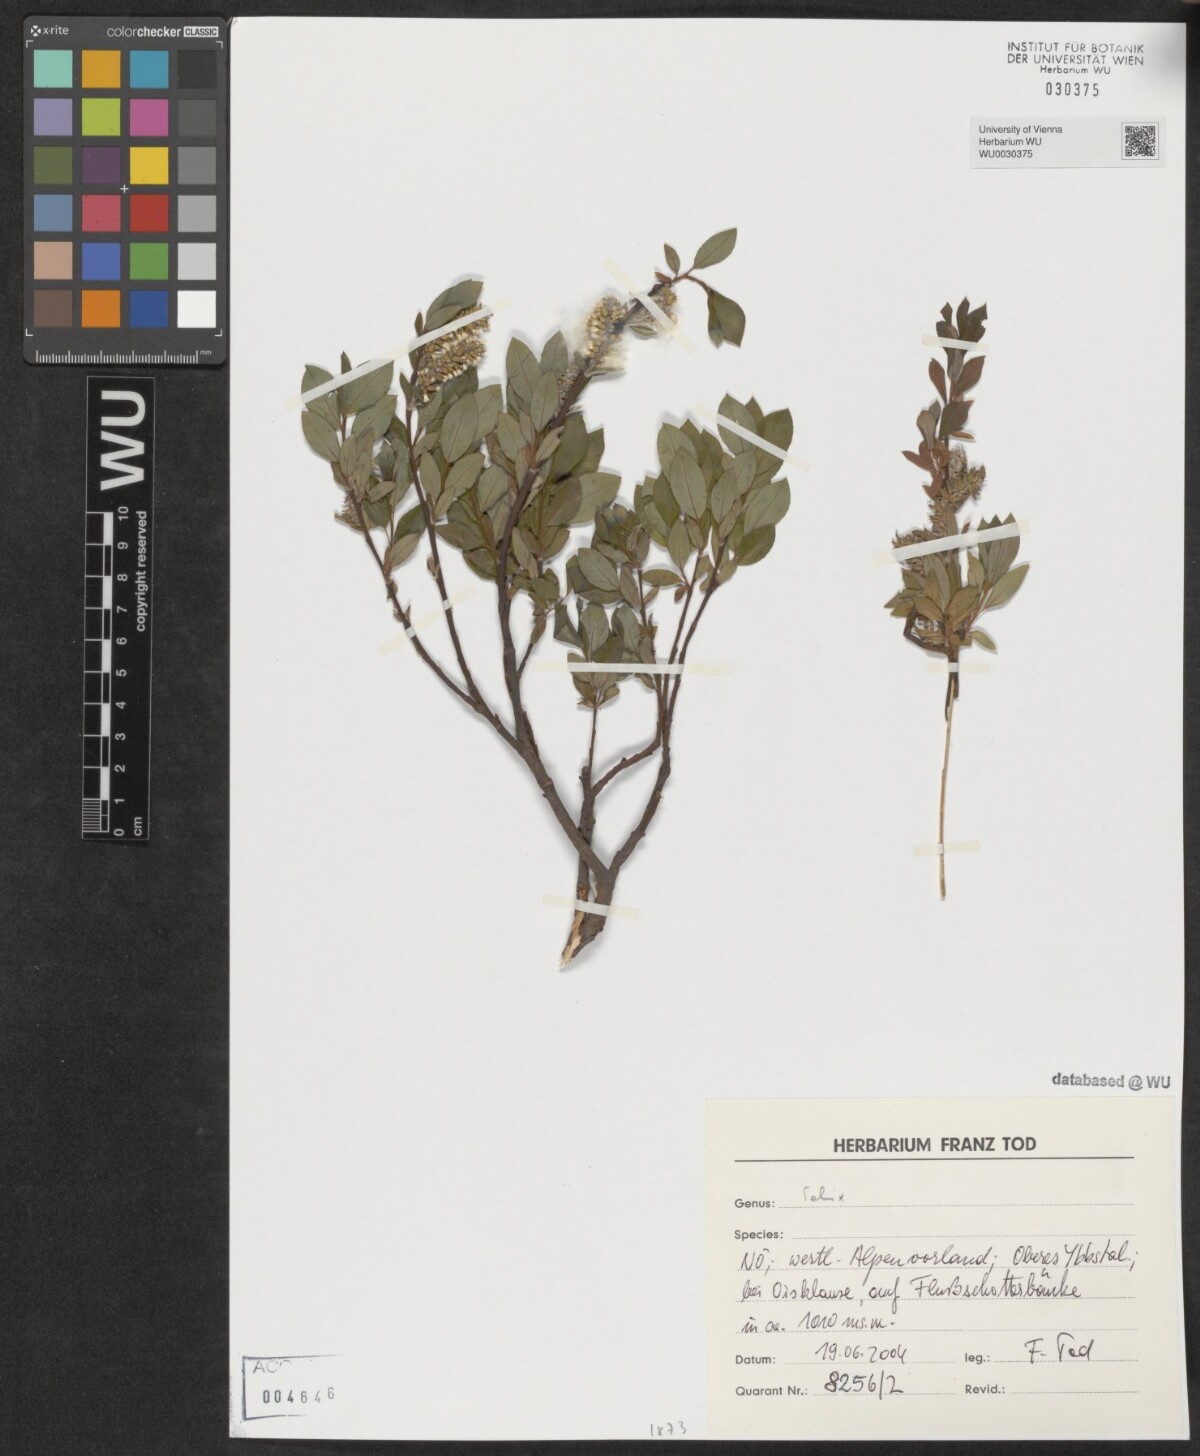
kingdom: Plantae
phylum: Tracheophyta
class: Magnoliopsida
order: Malpighiales
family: Salicaceae
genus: Salix
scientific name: Salix
